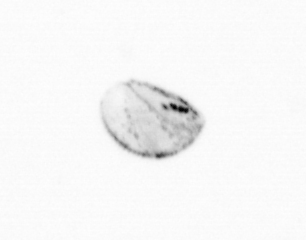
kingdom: Chromista
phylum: Ochrophyta
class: Bacillariophyceae
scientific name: Bacillariophyceae
